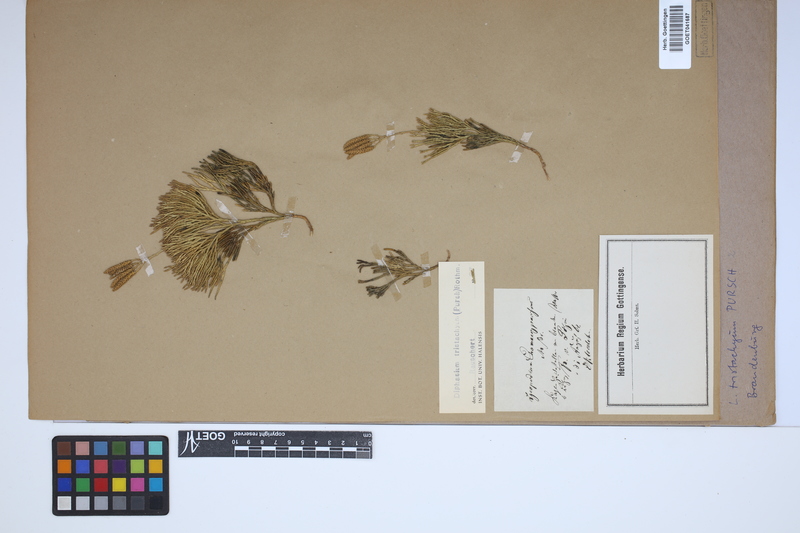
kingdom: Plantae
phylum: Tracheophyta
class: Lycopodiopsida
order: Lycopodiales
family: Lycopodiaceae
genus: Diphasiastrum
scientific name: Diphasiastrum tristachyum
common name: Blue ground-cedar
